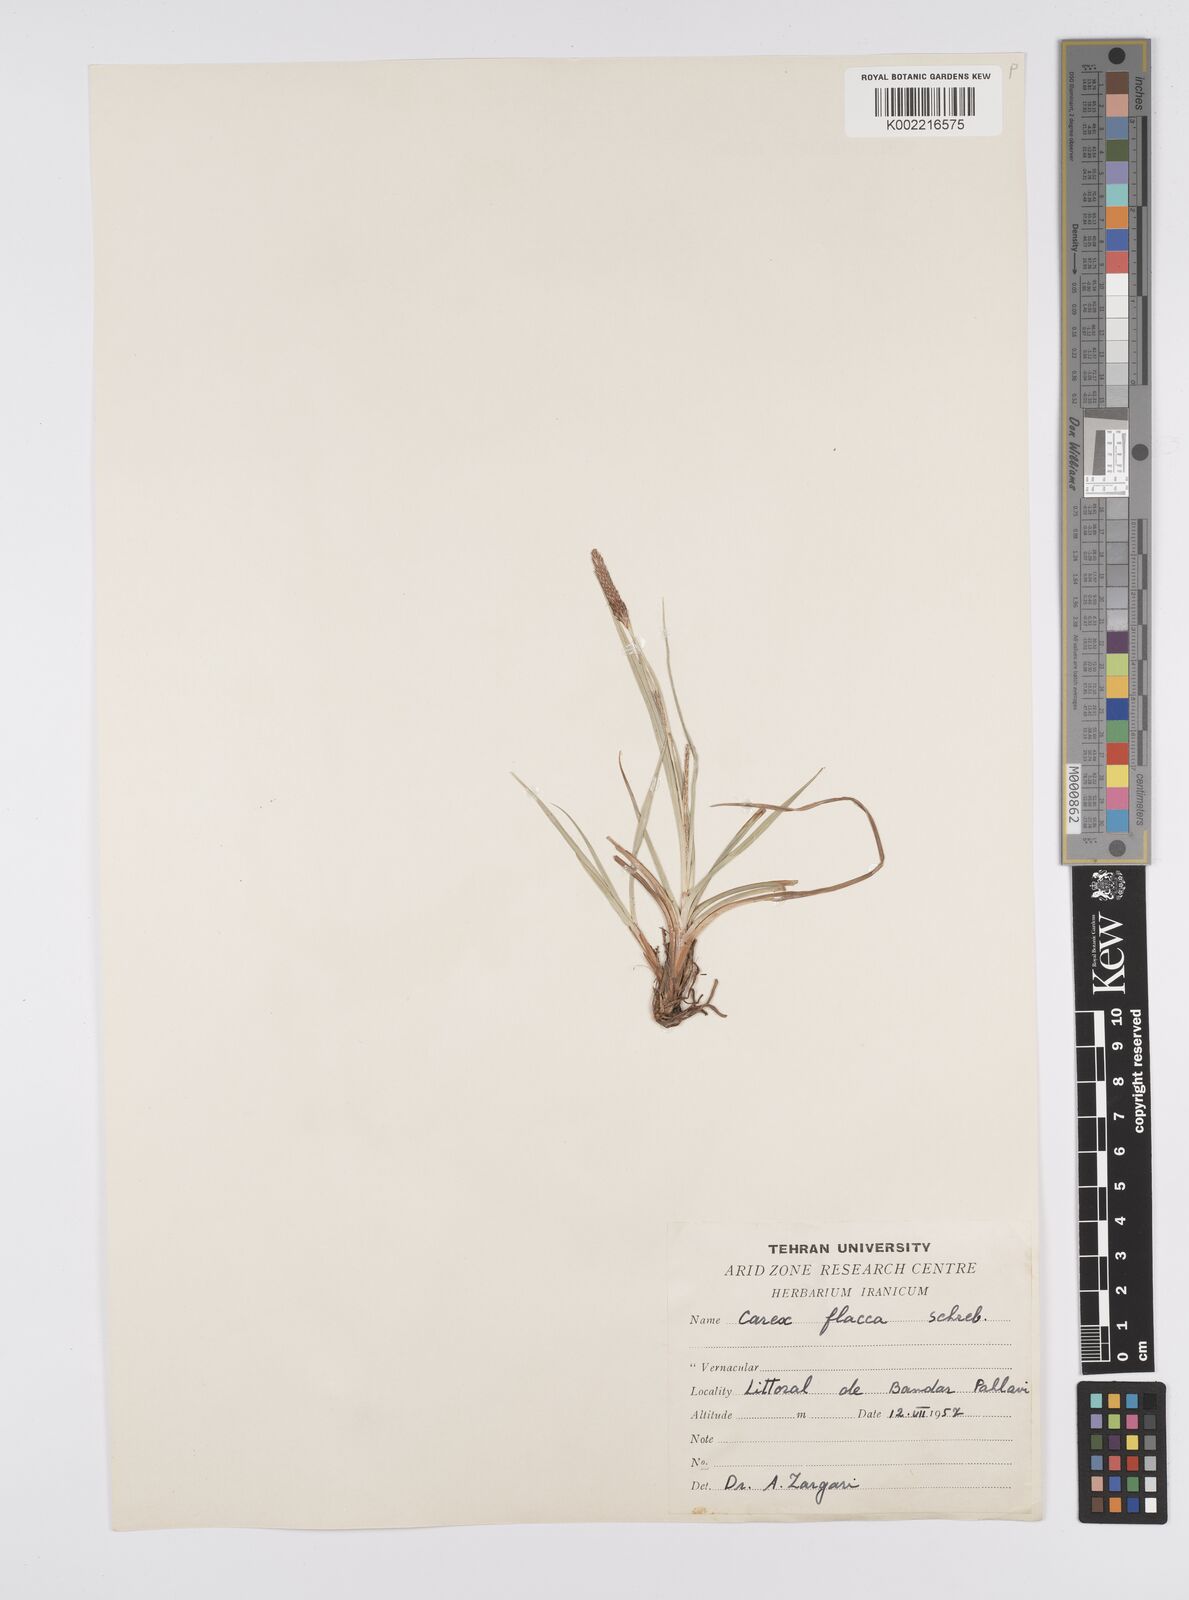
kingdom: Plantae
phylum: Tracheophyta
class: Liliopsida
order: Poales
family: Cyperaceae
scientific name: Cyperaceae
